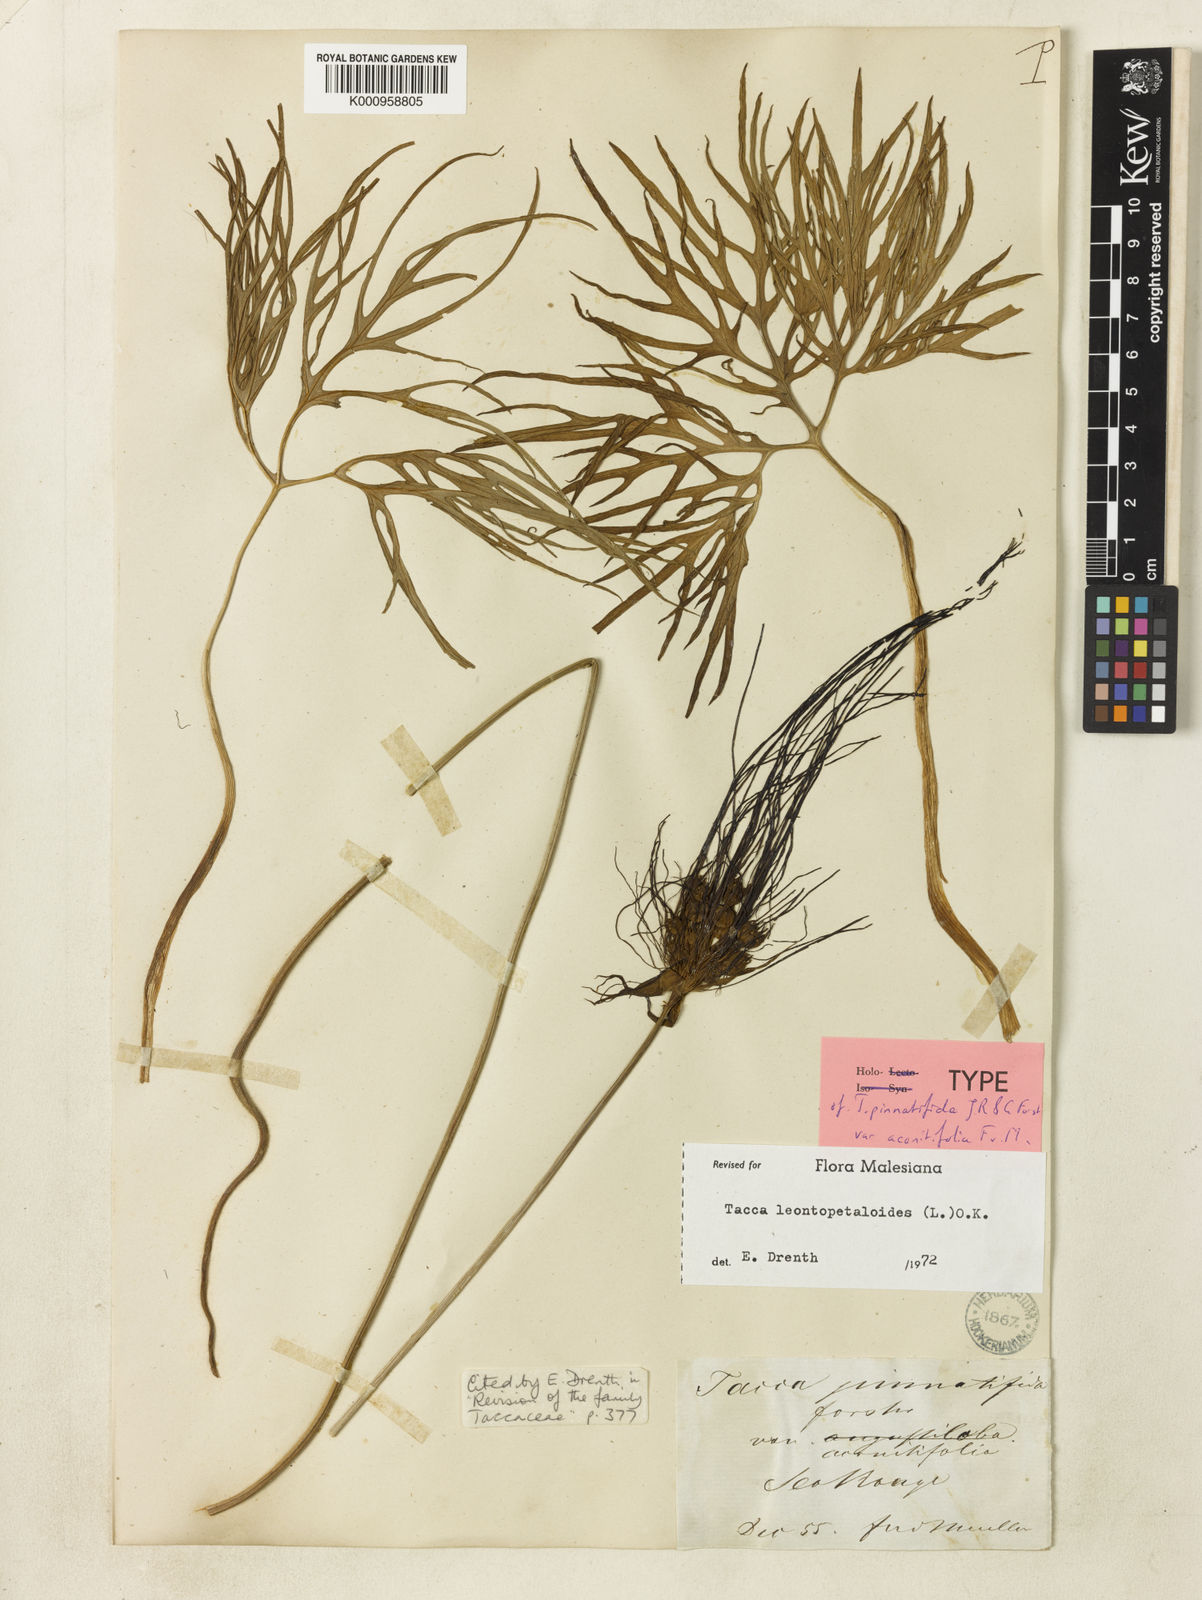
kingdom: Plantae
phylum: Tracheophyta
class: Liliopsida
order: Dioscoreales
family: Dioscoreaceae
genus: Tacca
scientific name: Tacca leontopetaloides
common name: Arrowroot
